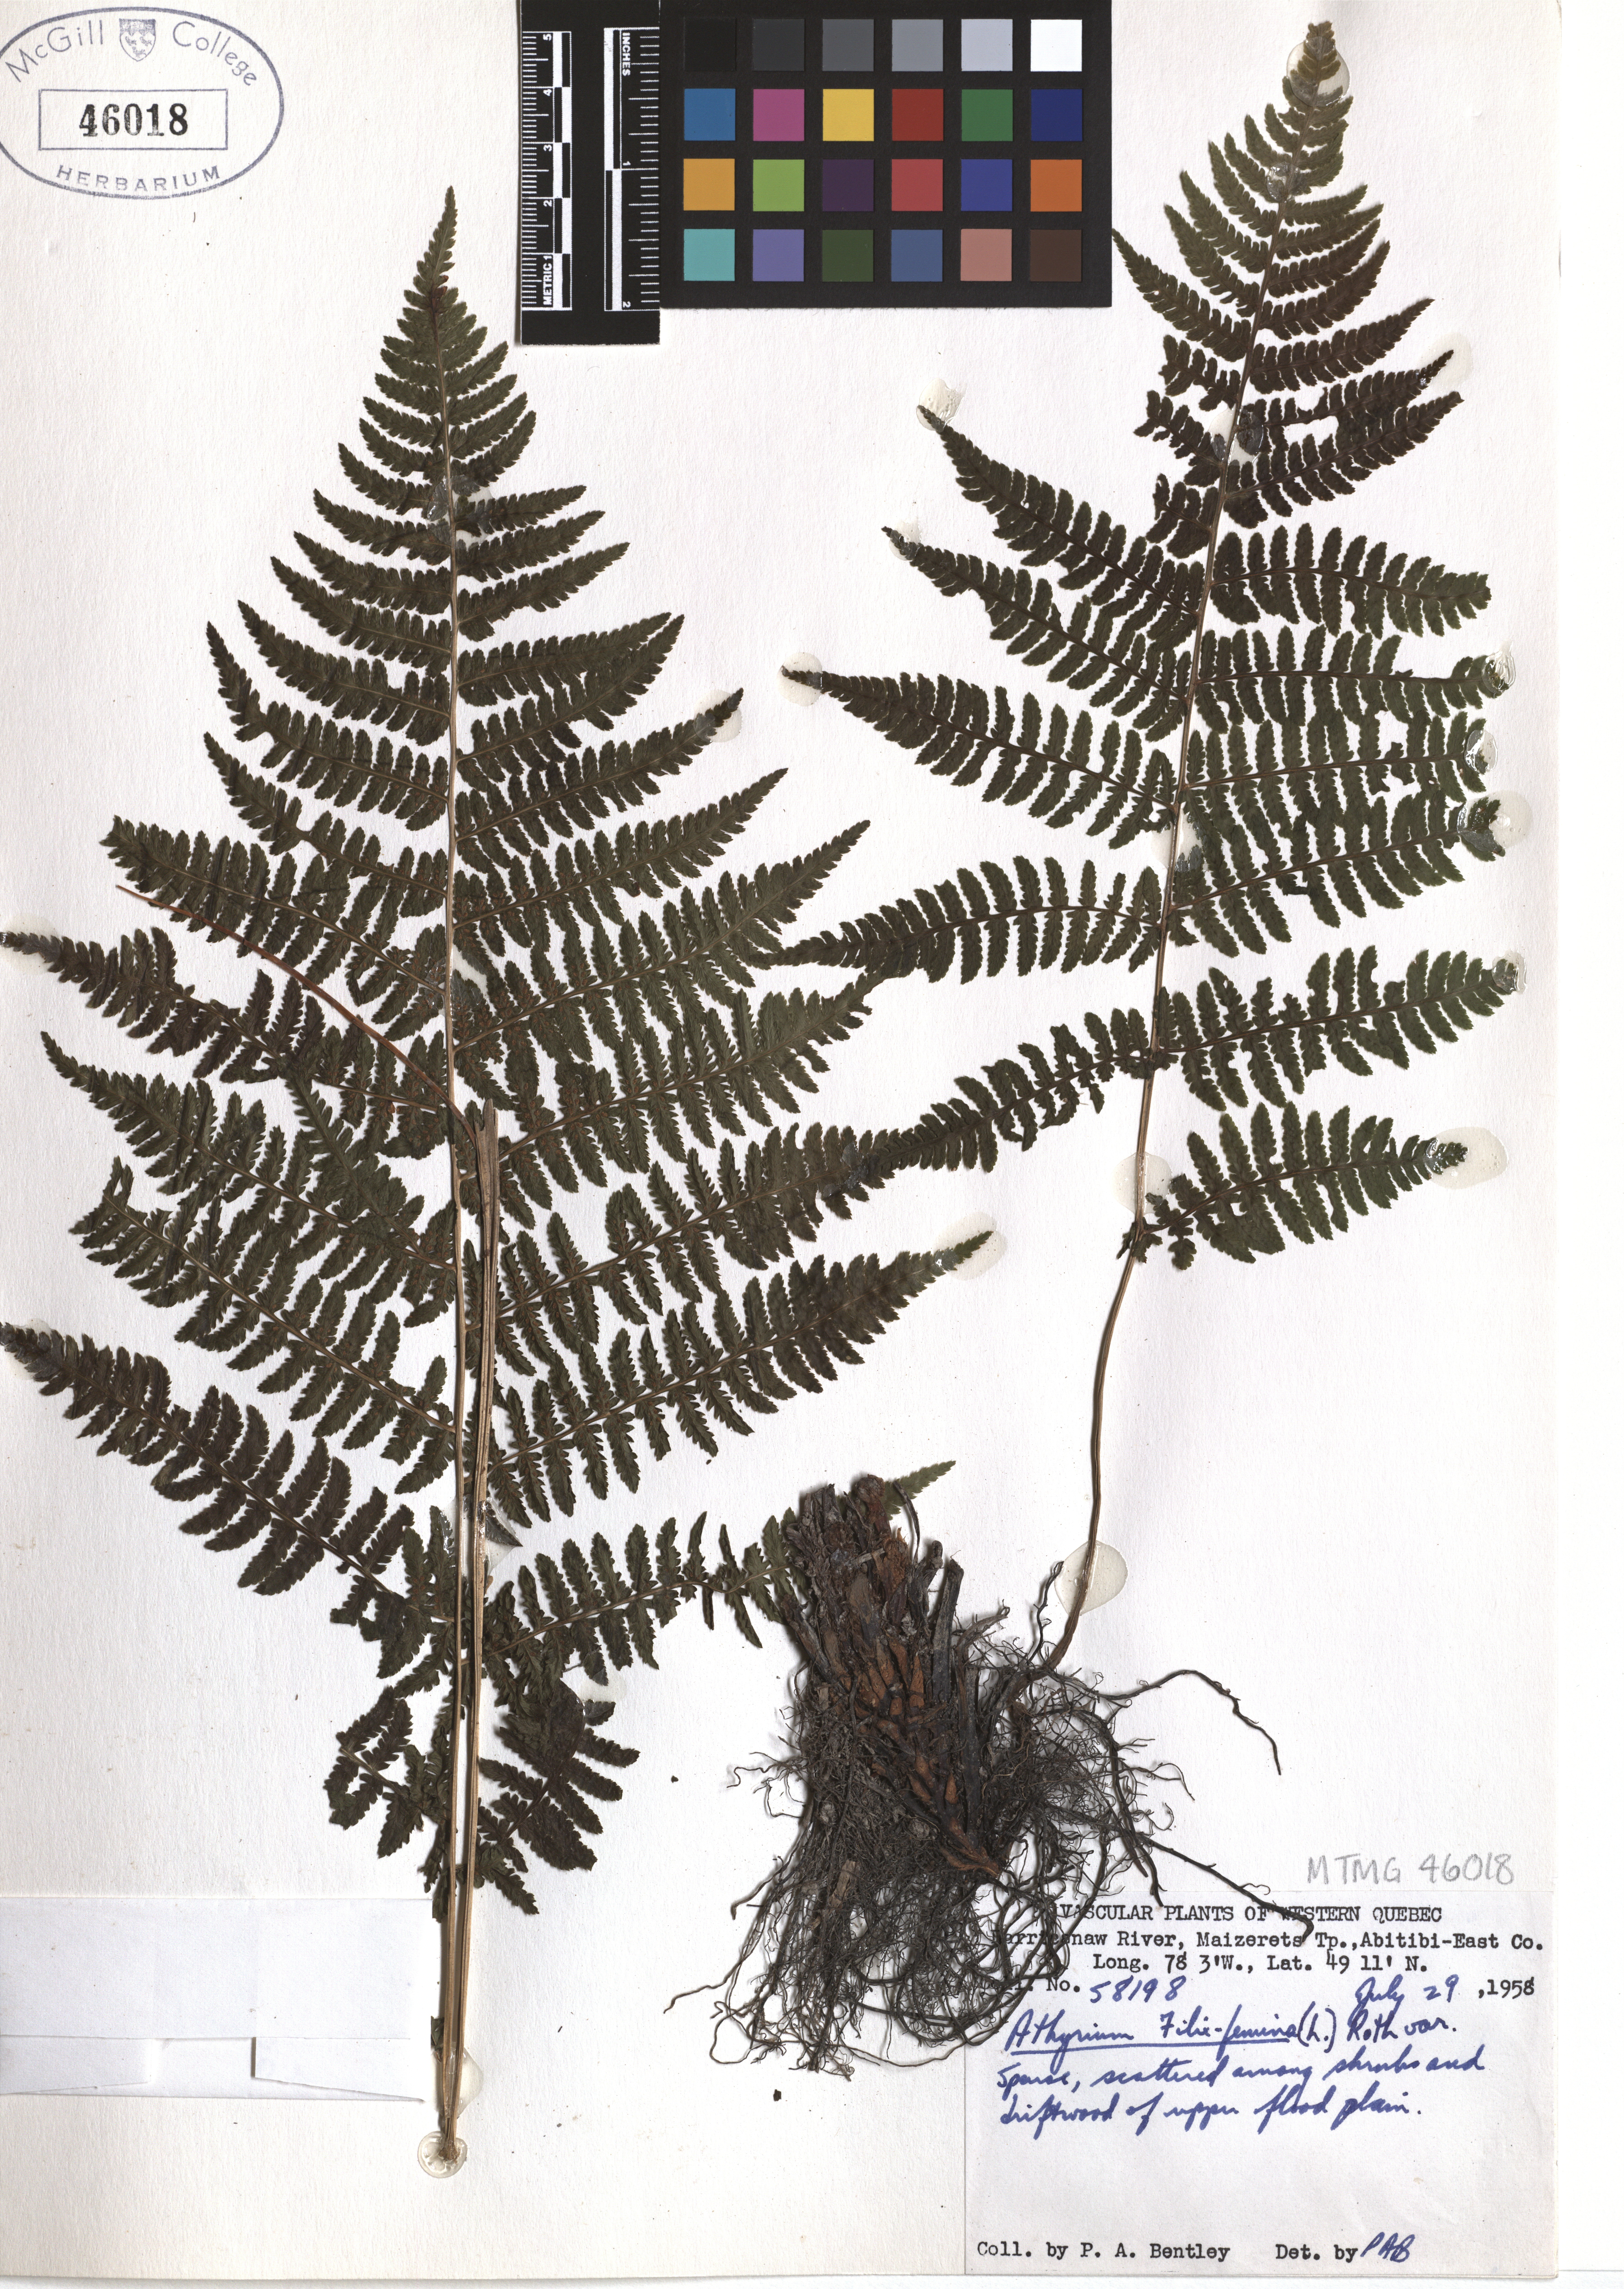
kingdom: Plantae
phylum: Tracheophyta
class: Polypodiopsida
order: Polypodiales
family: Athyriaceae
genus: Athyrium
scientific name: Athyrium filix-femina
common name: Lady fern
